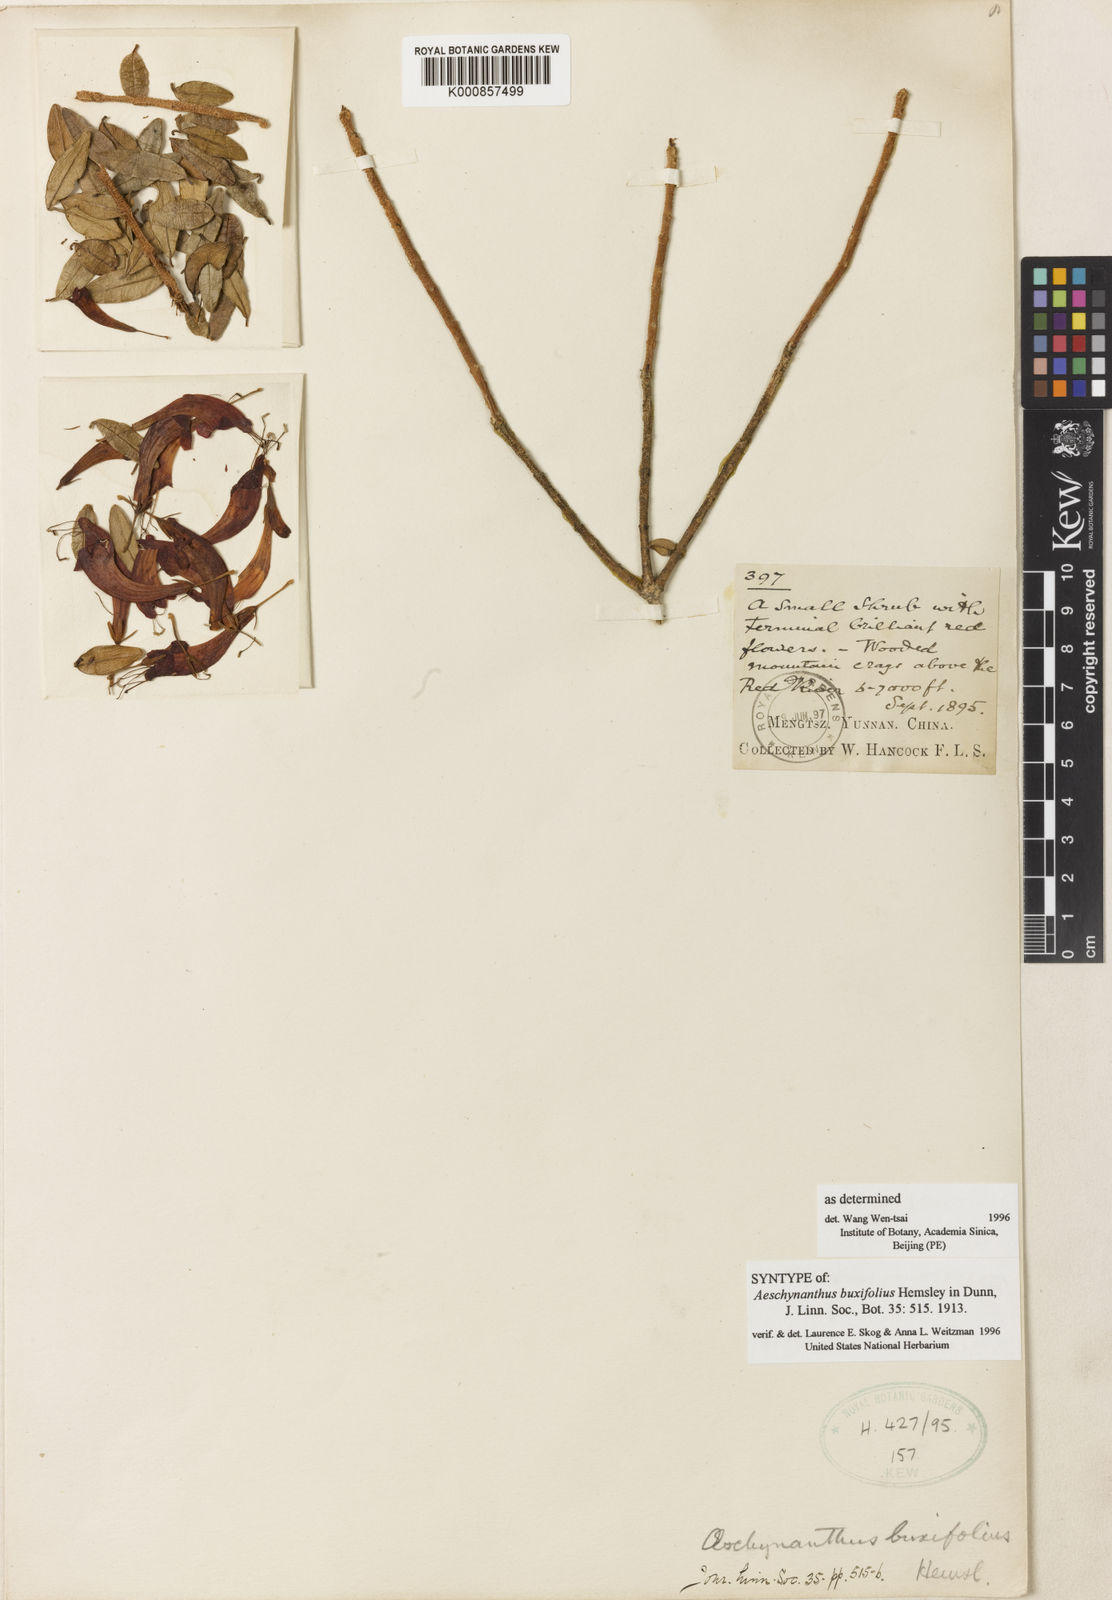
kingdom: Plantae
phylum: Tracheophyta
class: Magnoliopsida
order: Lamiales
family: Gesneriaceae
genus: Aeschynanthus
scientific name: Aeschynanthus buxifolius
